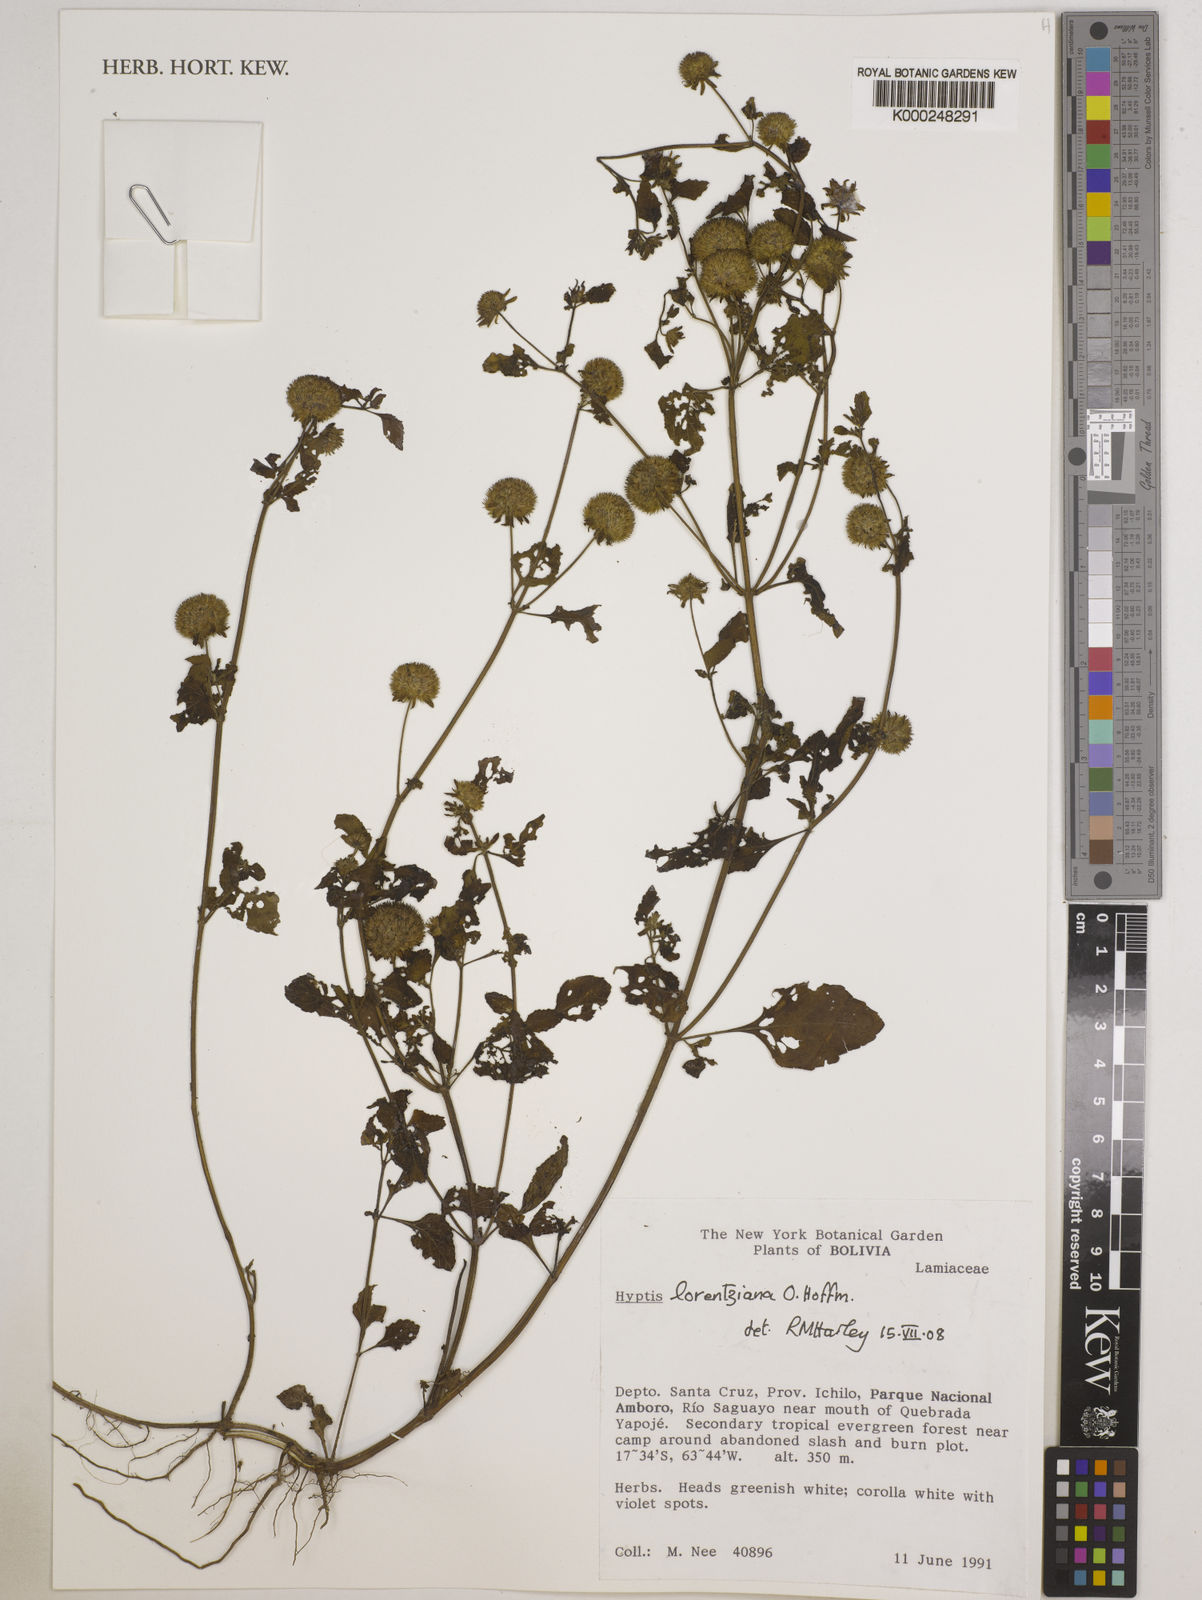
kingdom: Plantae
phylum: Tracheophyta
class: Magnoliopsida
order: Lamiales
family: Lamiaceae
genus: Hyptis
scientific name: Hyptis lorentziana
